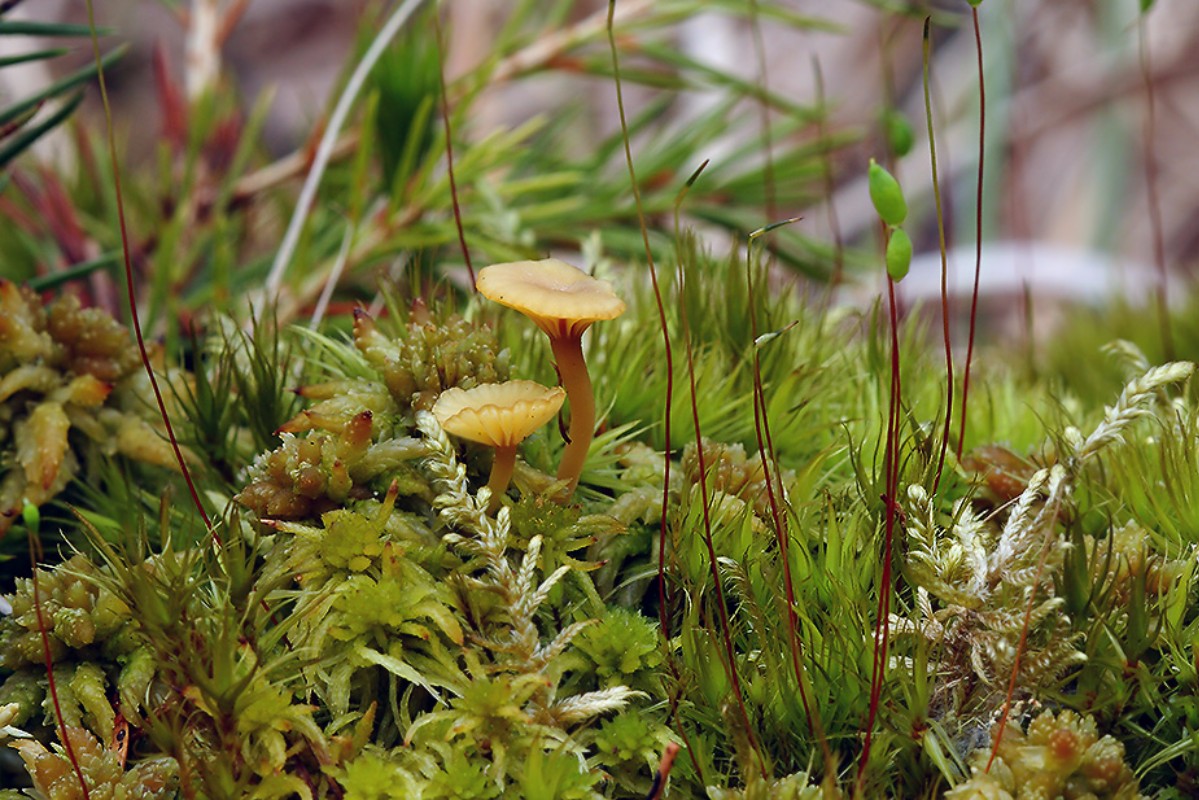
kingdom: Fungi
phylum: Basidiomycota
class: Agaricomycetes
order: Agaricales
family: Hygrophoraceae
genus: Lichenomphalia
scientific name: Lichenomphalia umbellifera
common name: tørve-lavhat
